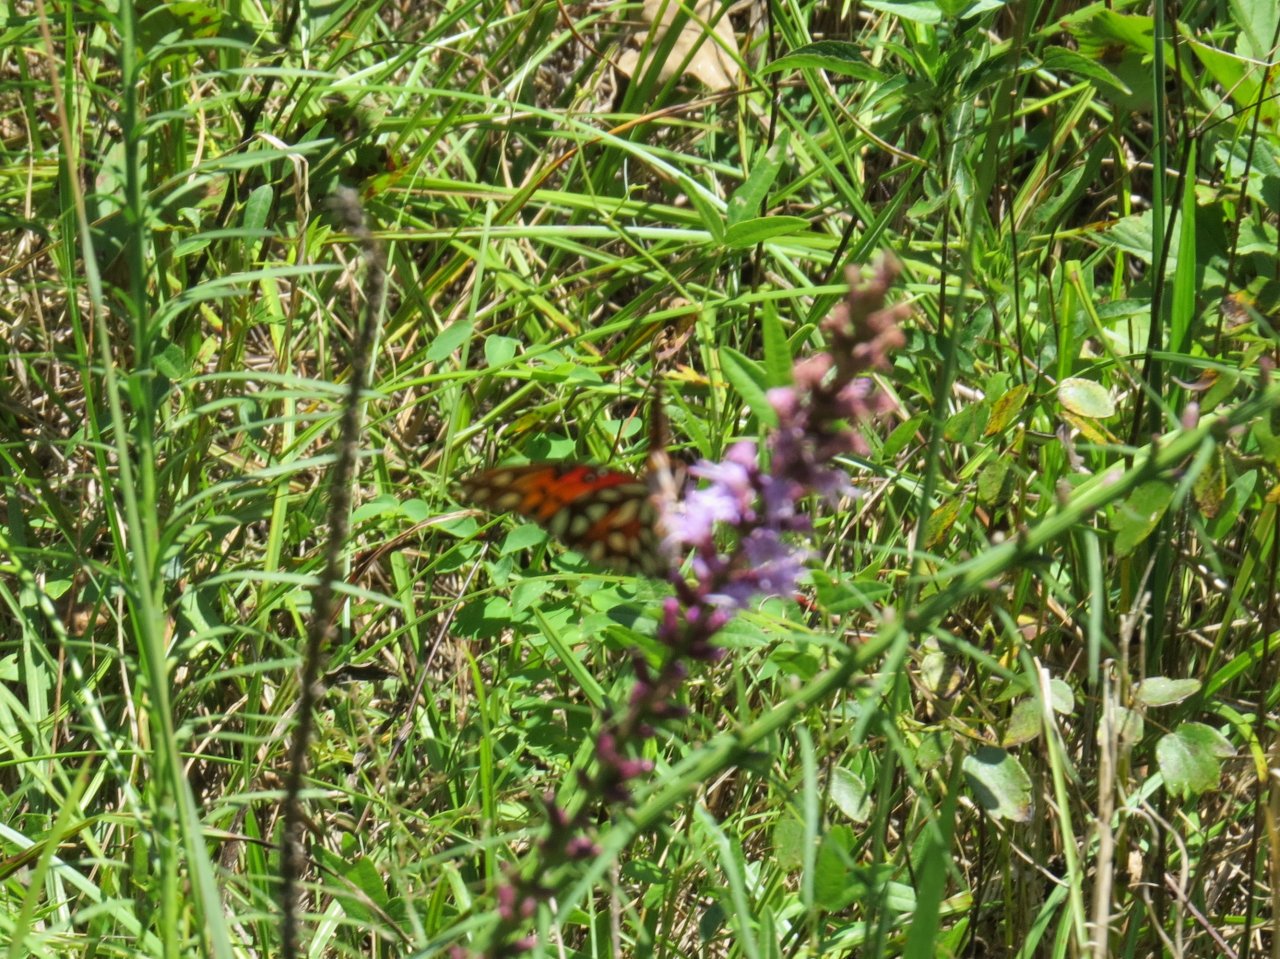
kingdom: Animalia
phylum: Arthropoda
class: Insecta
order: Lepidoptera
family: Nymphalidae
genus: Dione
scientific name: Dione vanillae
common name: Gulf Fritillary
